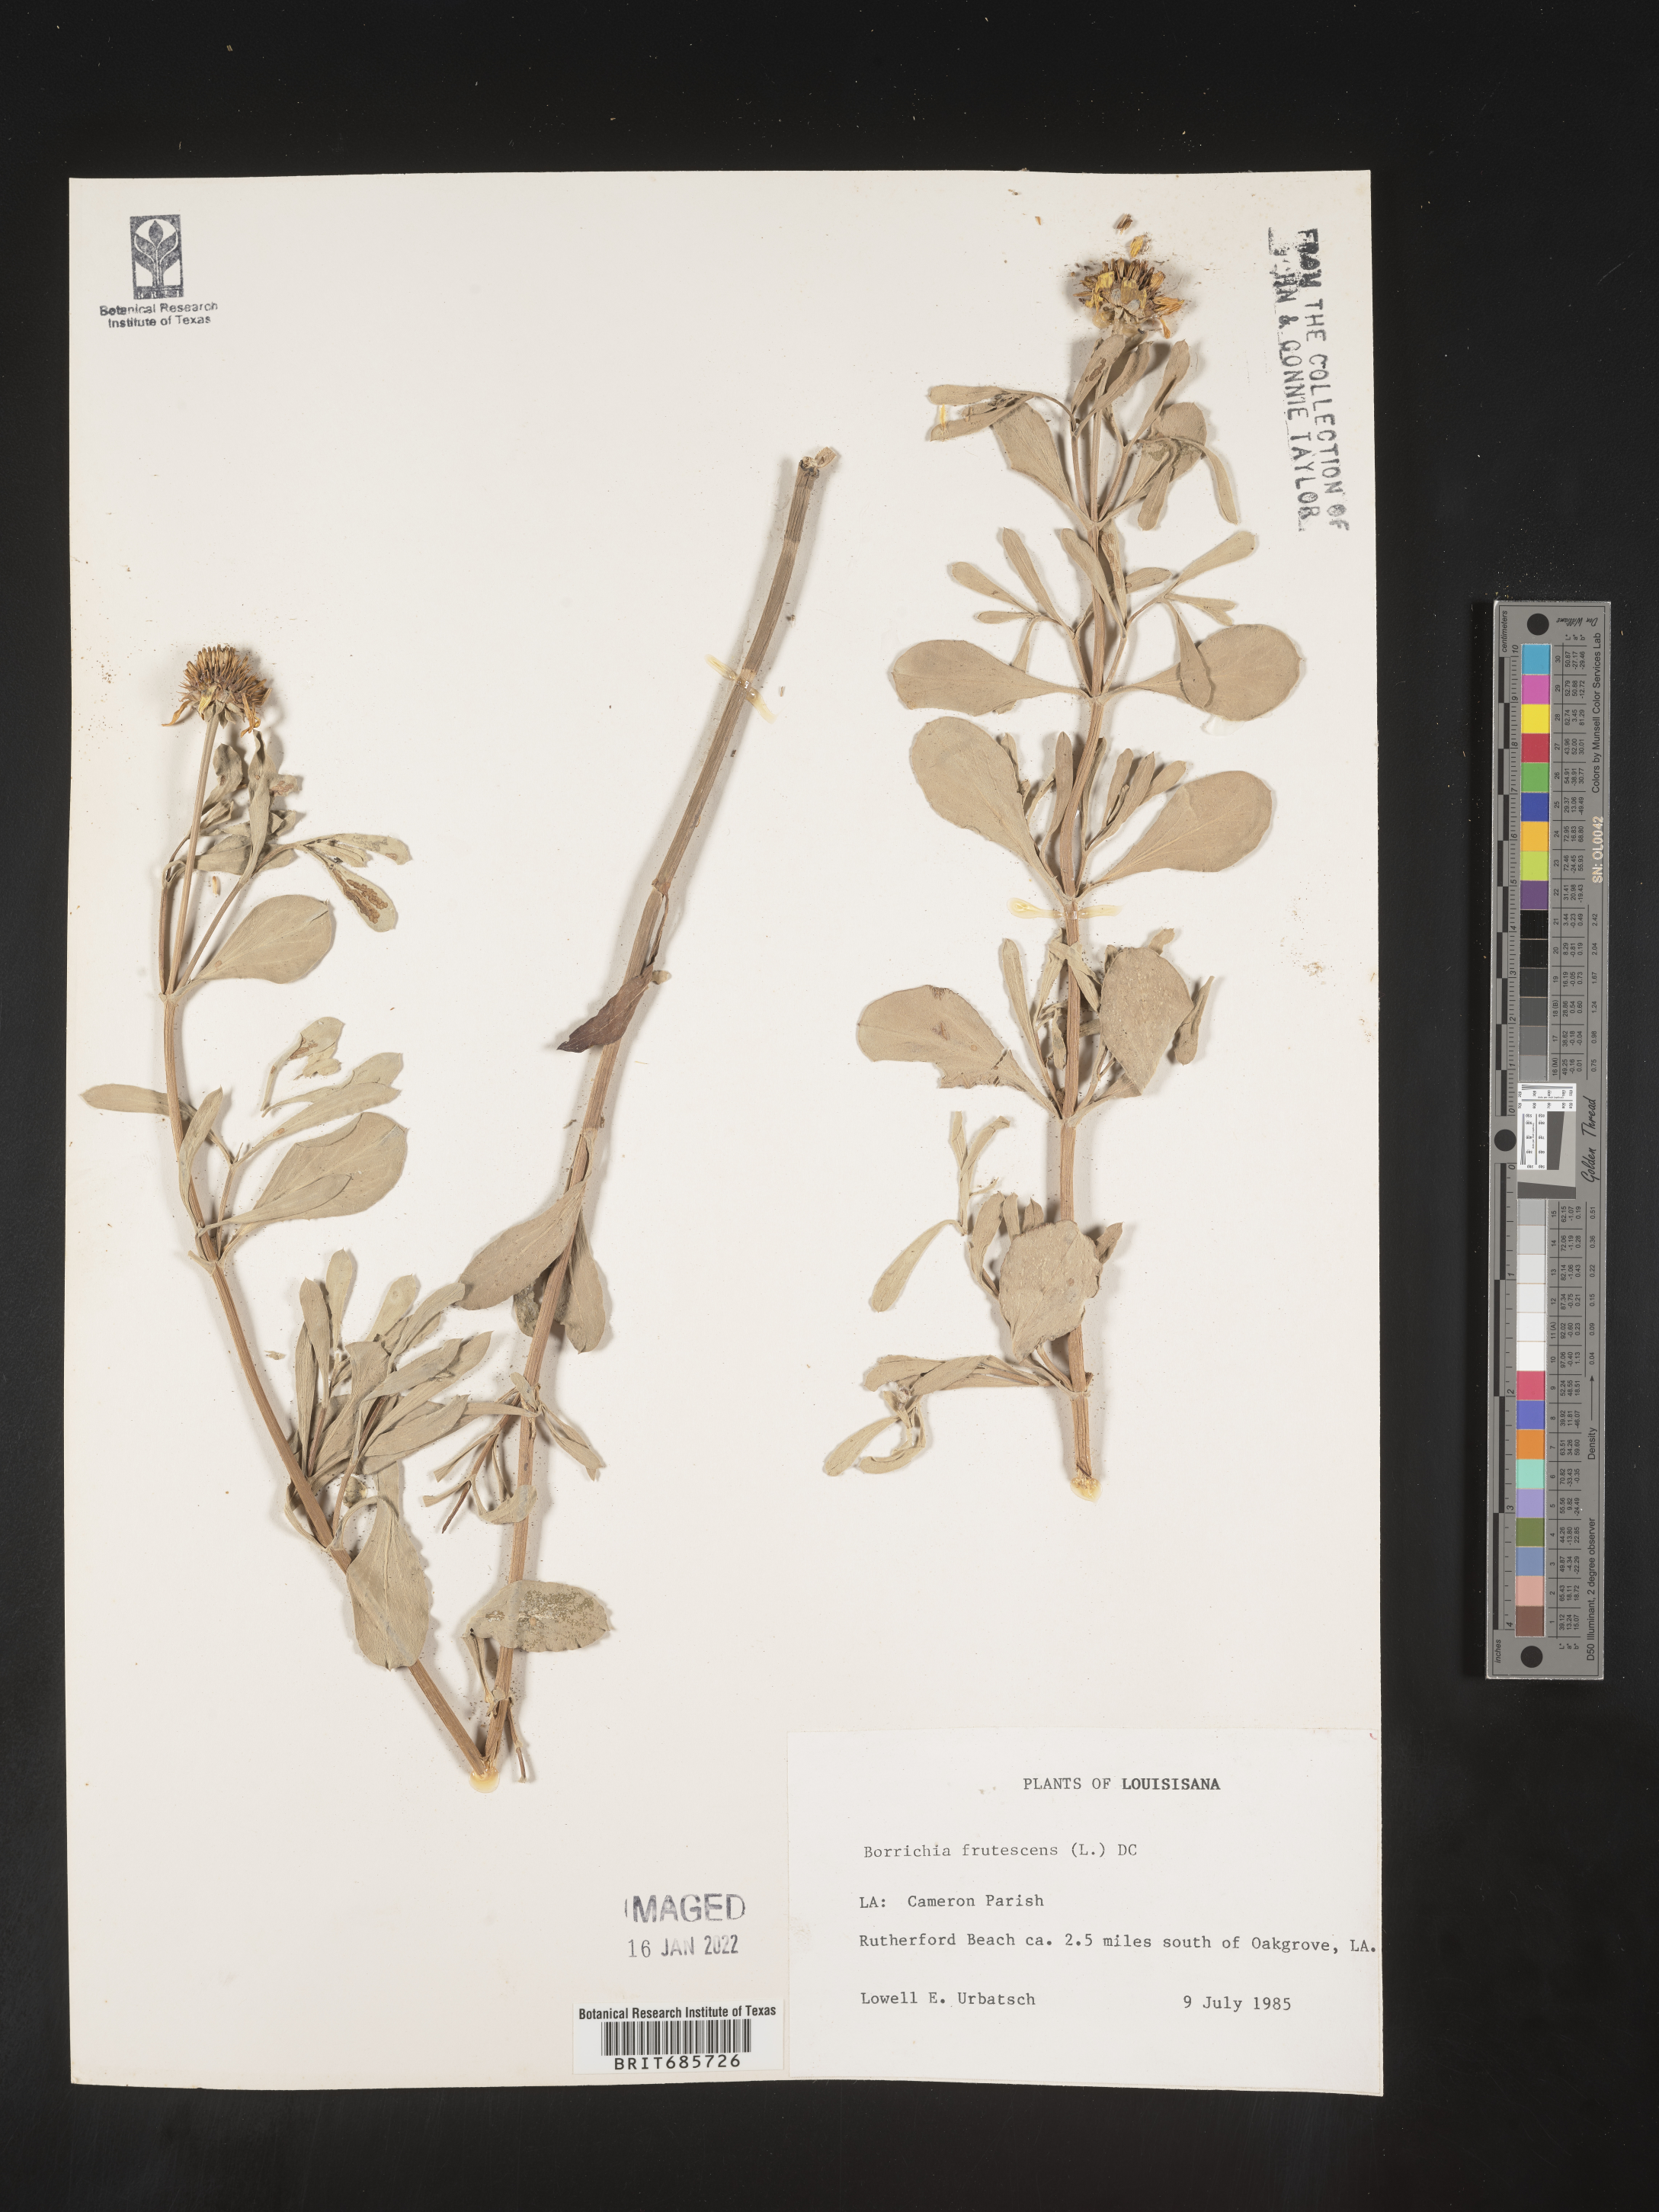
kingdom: Plantae
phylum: Tracheophyta
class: Magnoliopsida
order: Asterales
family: Asteraceae
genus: Borrichia
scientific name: Borrichia frutescens
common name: Sea oxeye
